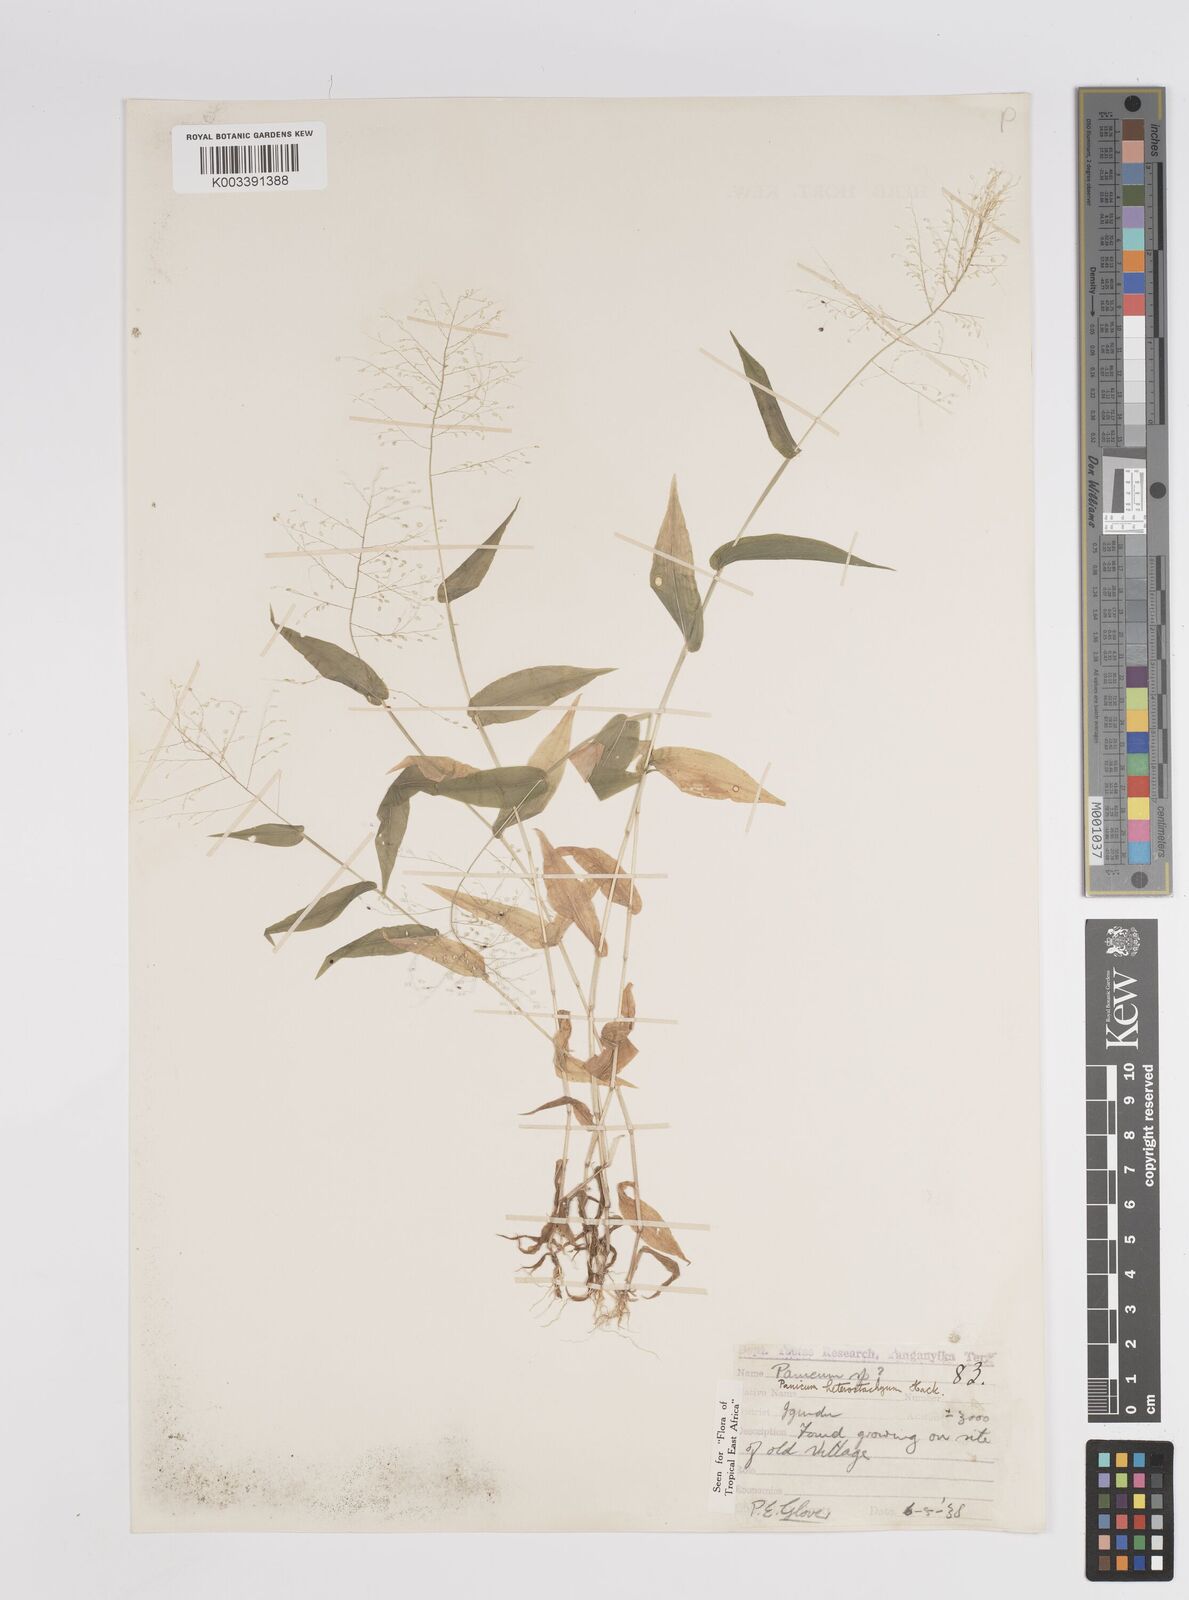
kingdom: Plantae
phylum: Tracheophyta
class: Liliopsida
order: Poales
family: Poaceae
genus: Panicum
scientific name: Panicum hirtum
